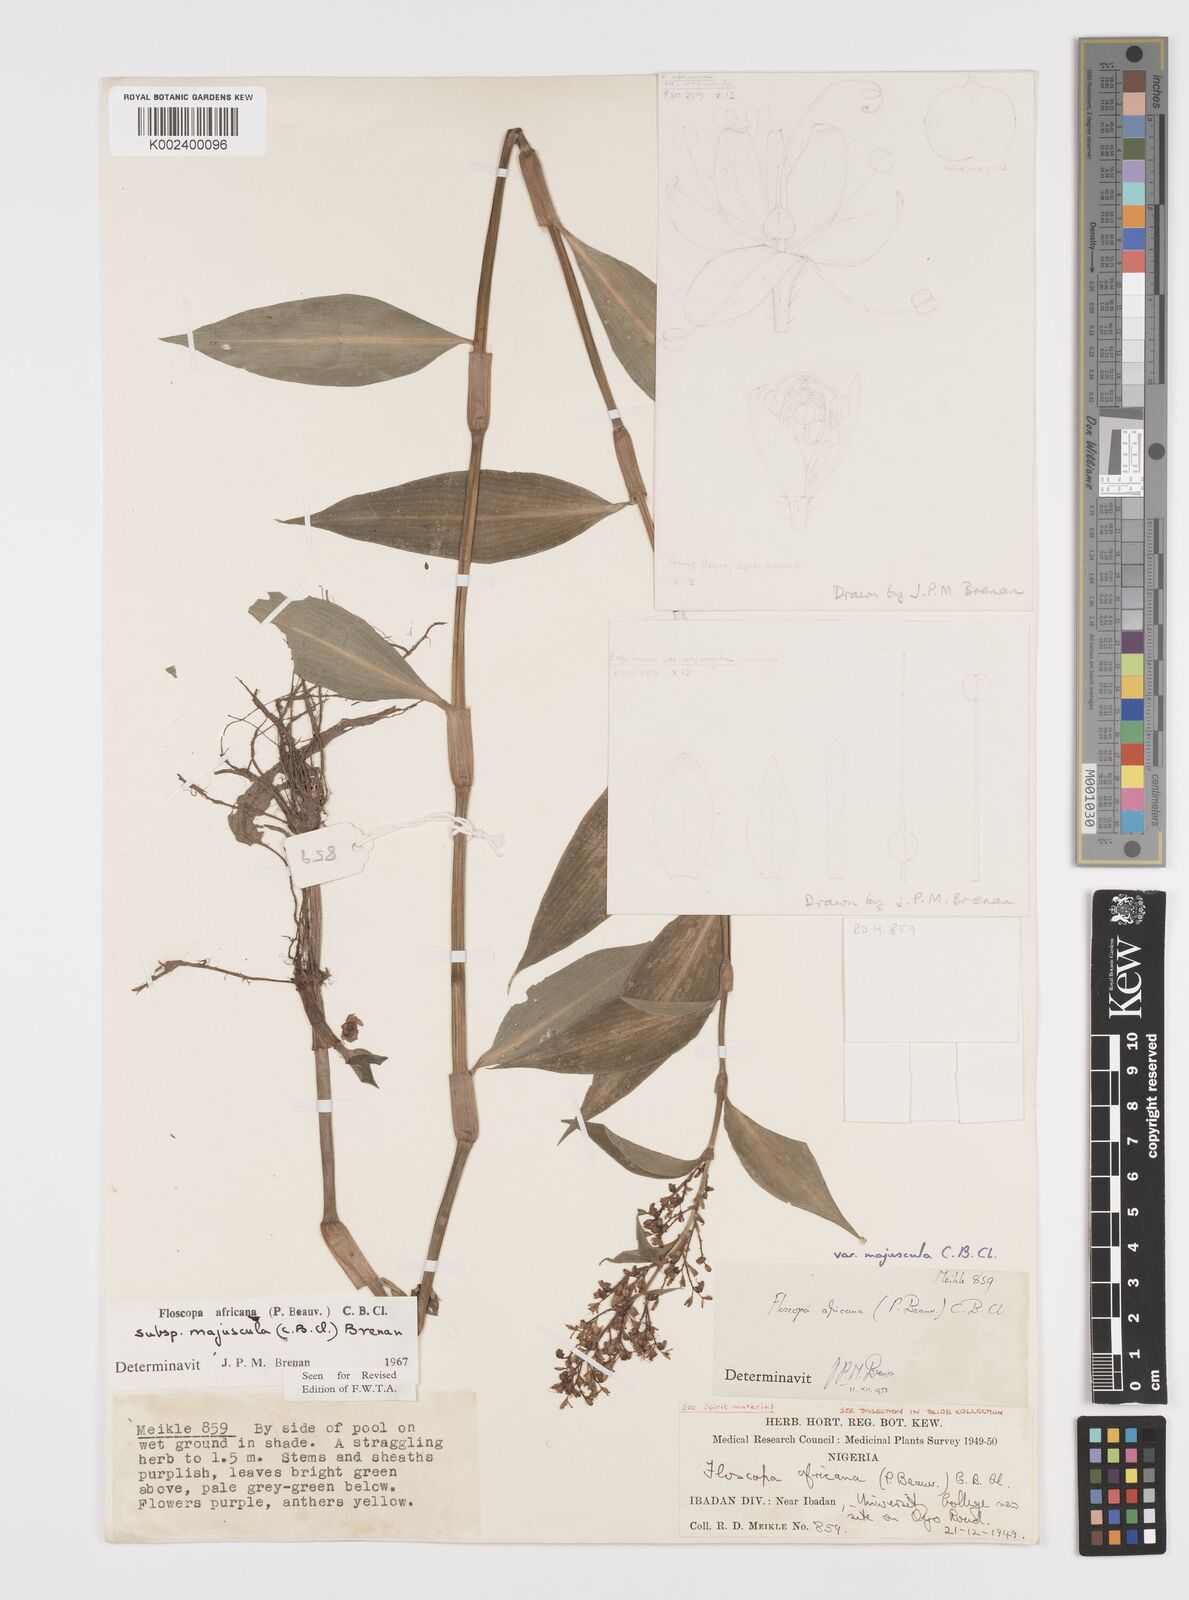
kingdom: Plantae
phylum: Tracheophyta
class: Liliopsida
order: Commelinales
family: Commelinaceae
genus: Floscopa
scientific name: Floscopa africana
